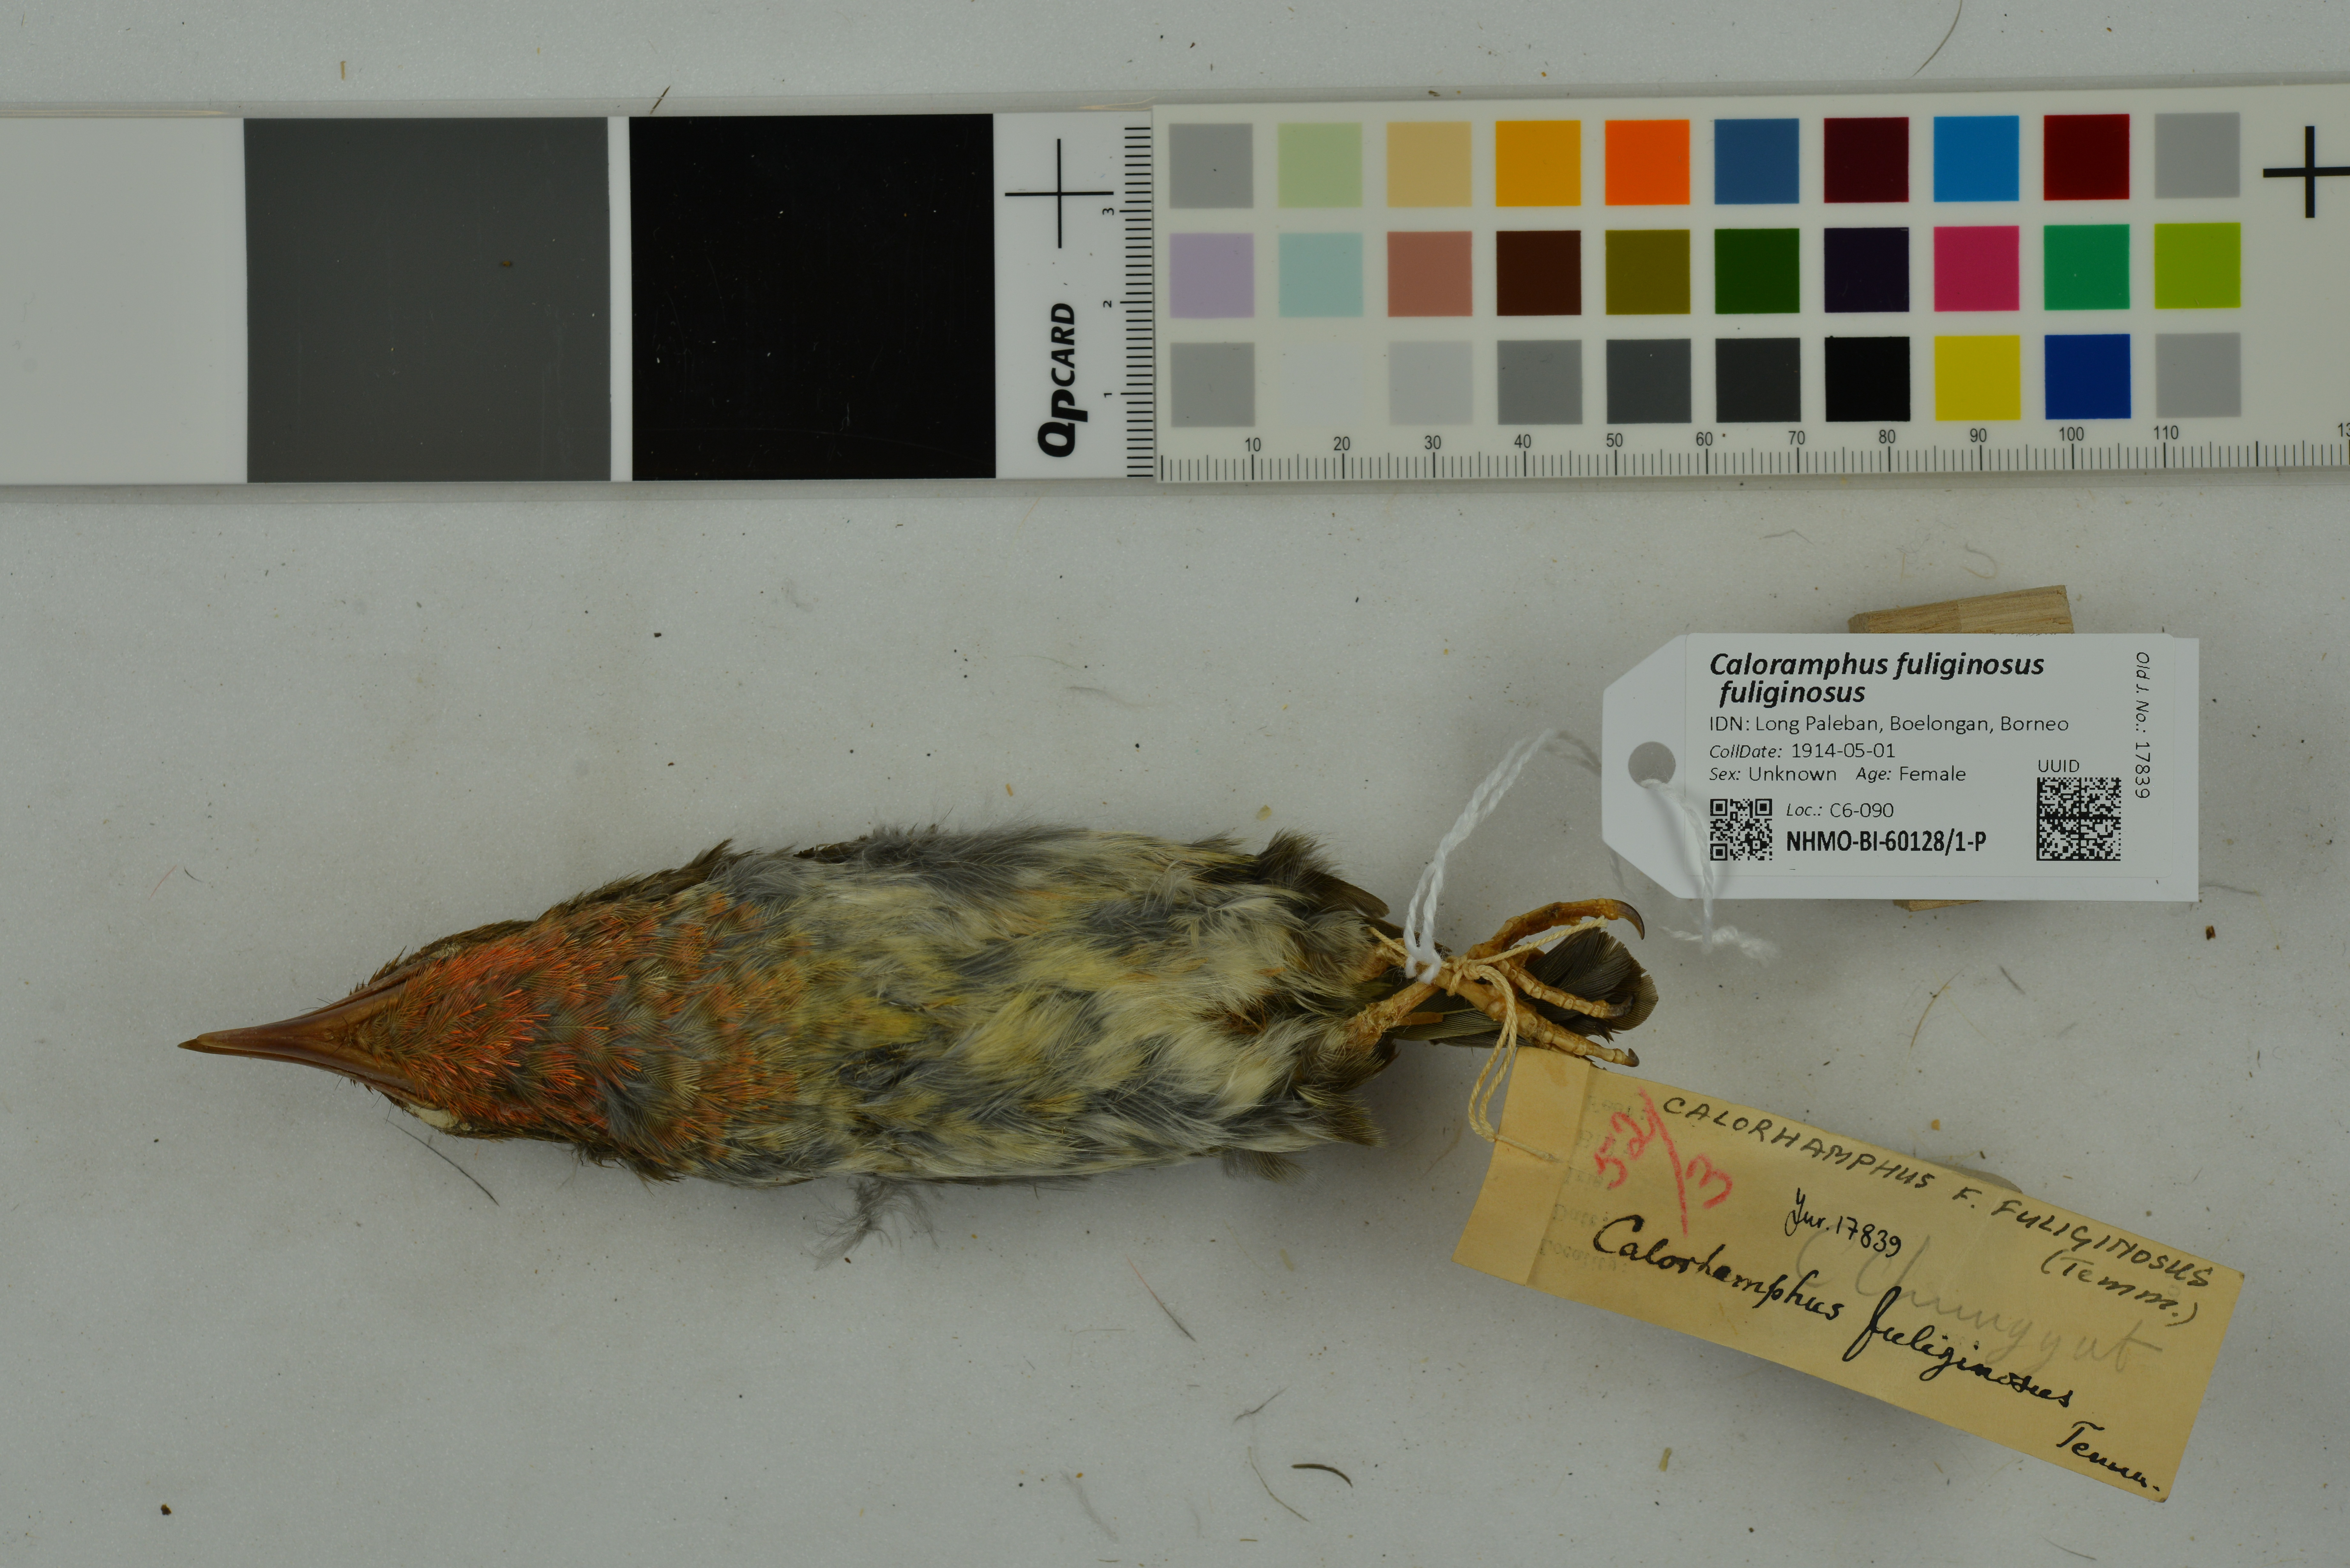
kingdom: Animalia
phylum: Chordata
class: Aves
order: Piciformes
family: Megalaimidae
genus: Caloramphus
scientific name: Caloramphus fuliginosus
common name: Brown barbet
